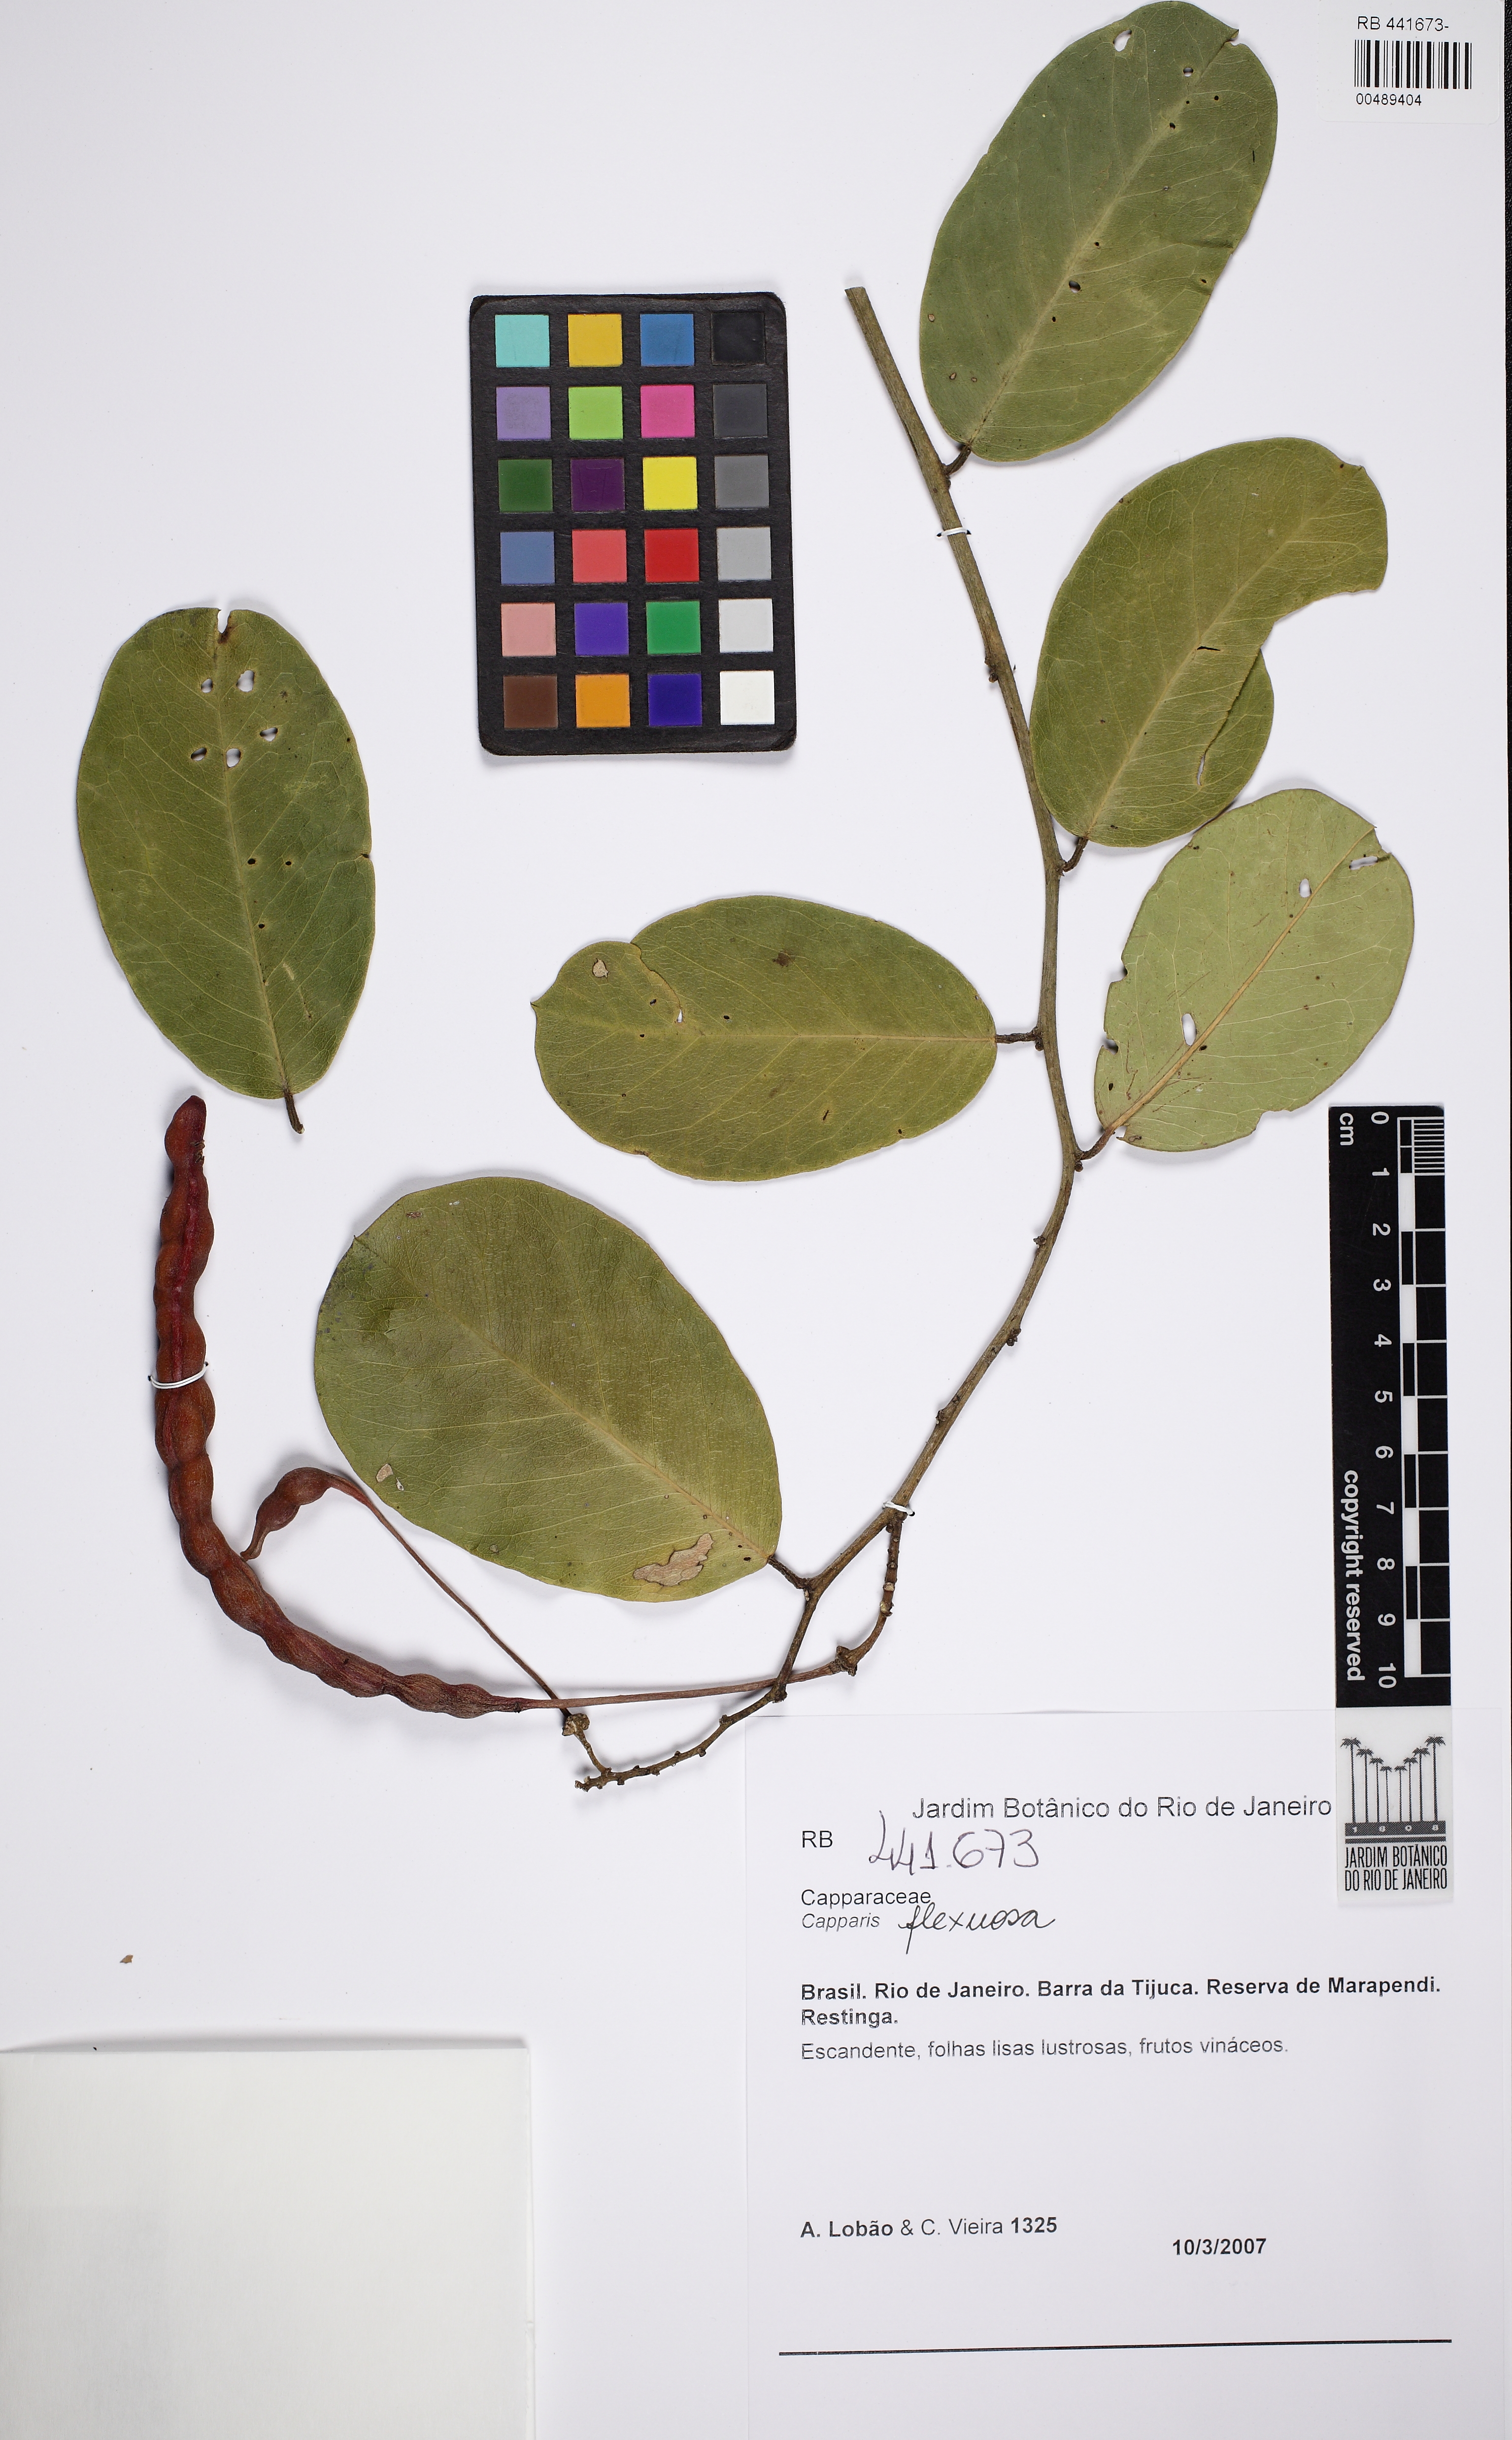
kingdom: Plantae
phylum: Tracheophyta
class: Magnoliopsida
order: Brassicales
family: Capparaceae
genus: Capparis
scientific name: Capparis
